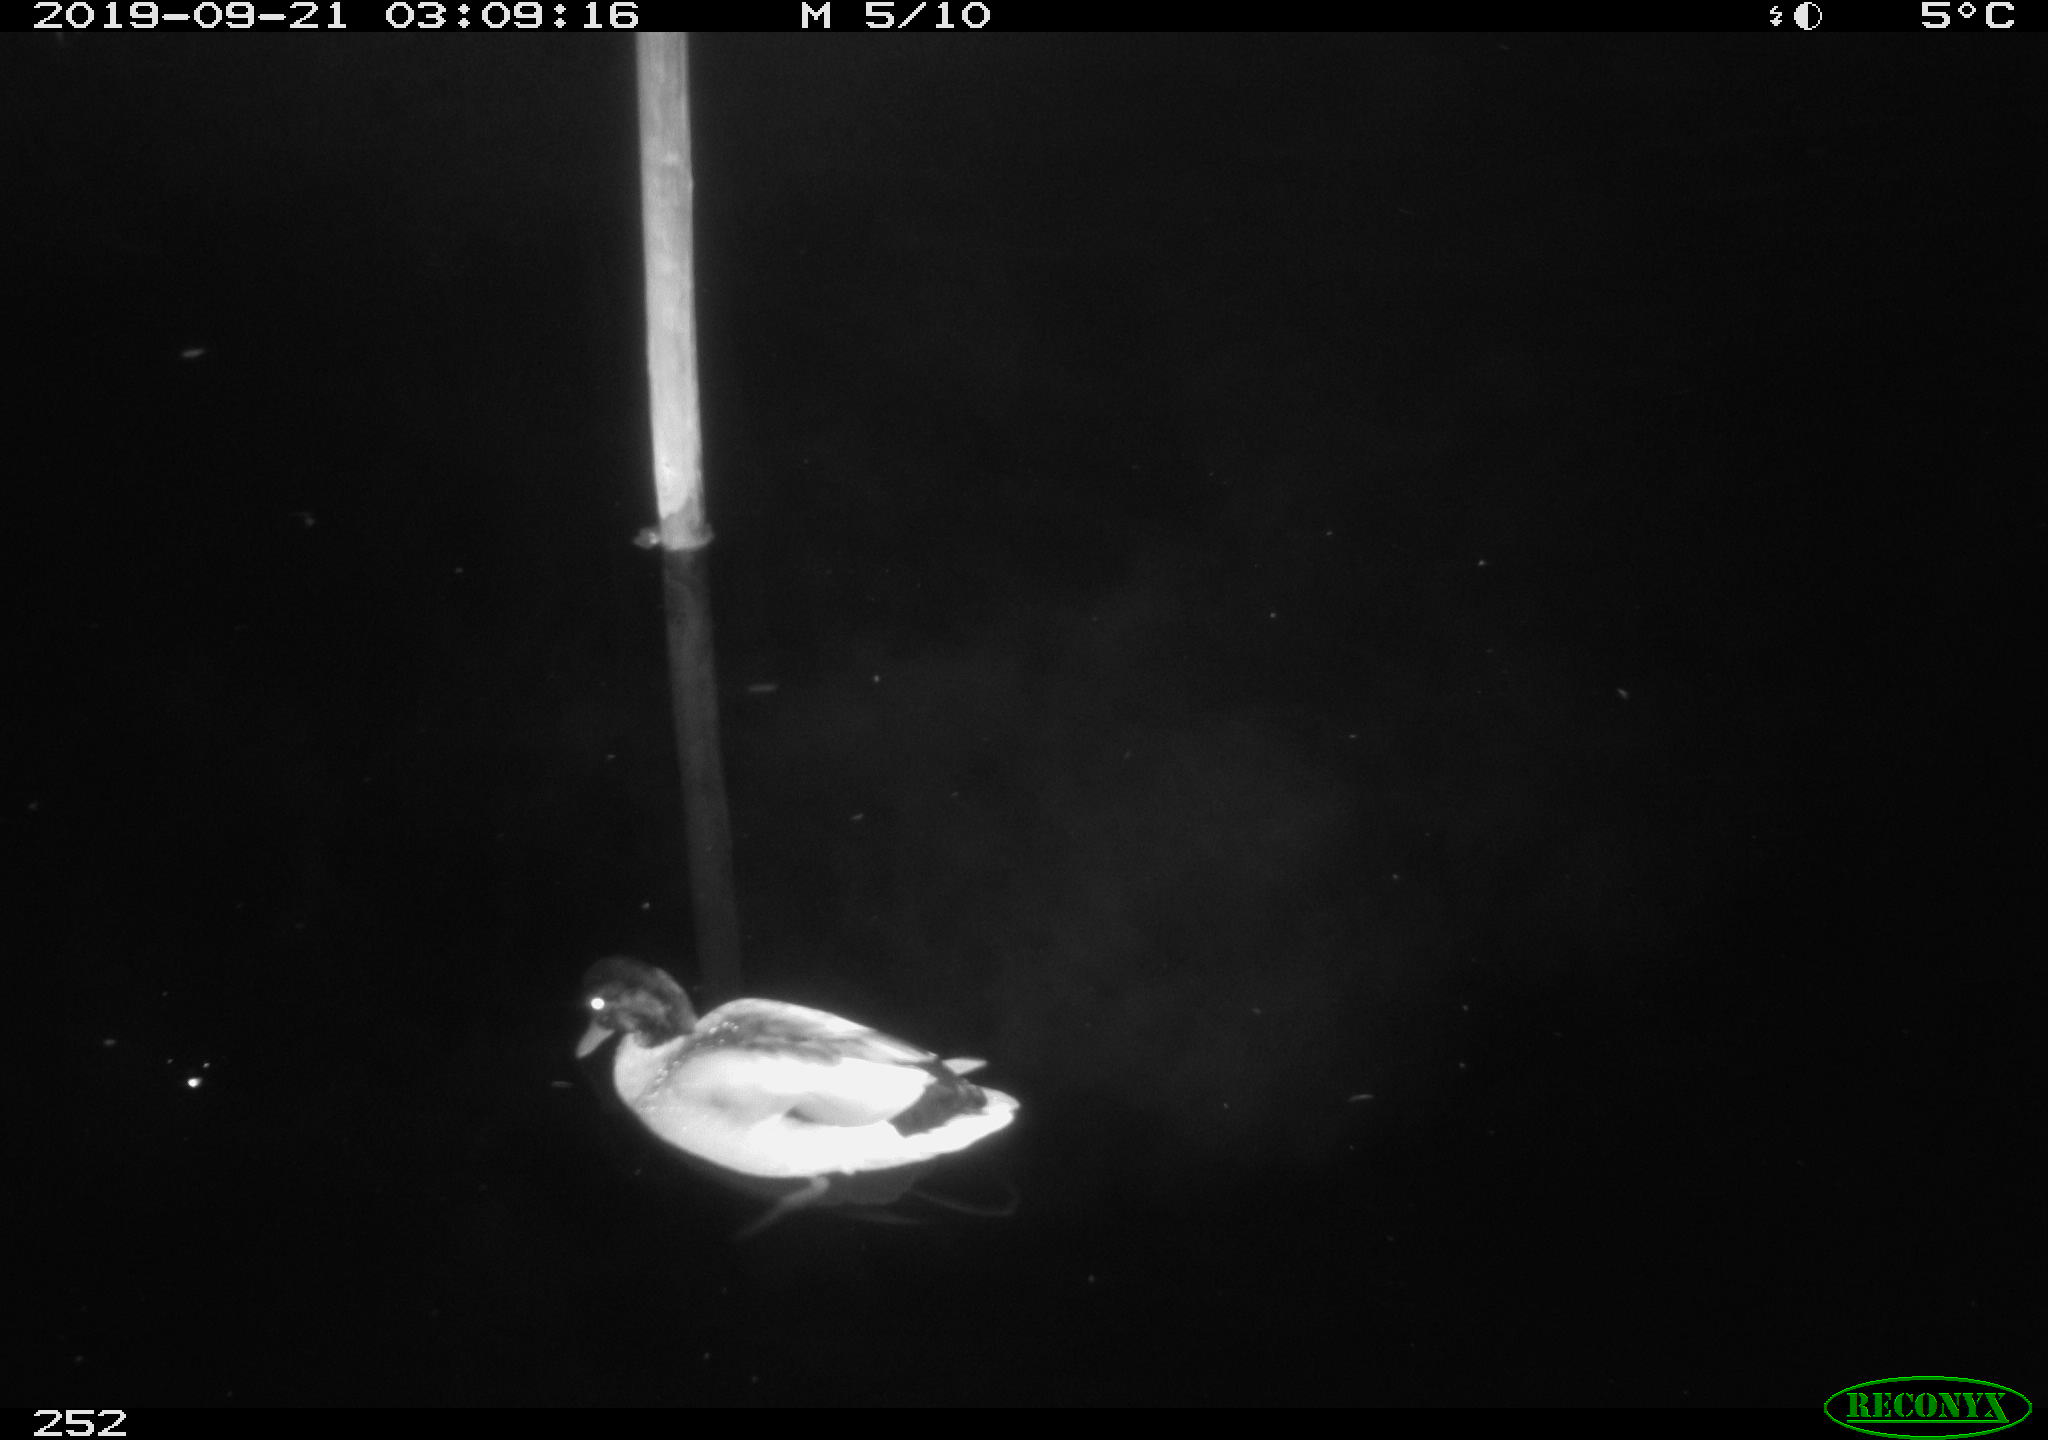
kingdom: Animalia
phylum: Chordata
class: Aves
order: Anseriformes
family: Anatidae
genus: Anas
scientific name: Anas platyrhynchos
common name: Mallard
